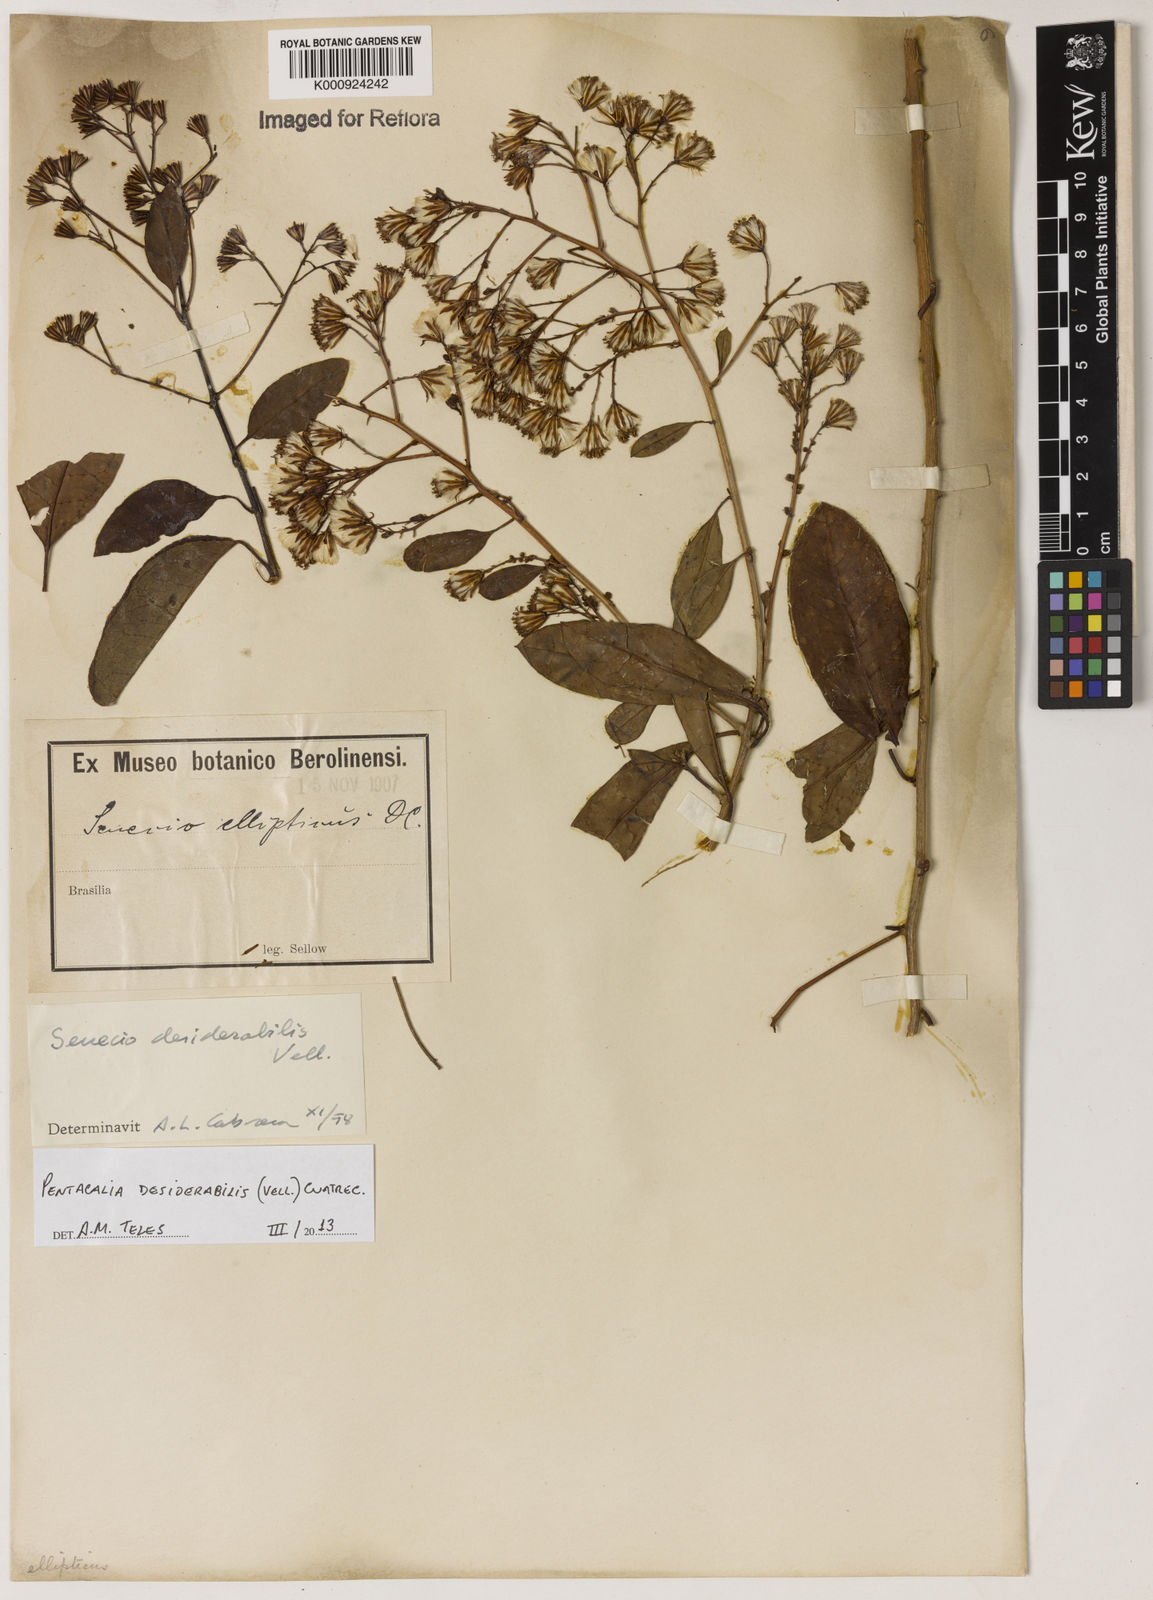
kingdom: Plantae
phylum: Tracheophyta
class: Magnoliopsida
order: Asterales
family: Asteraceae
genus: Pentacalia
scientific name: Pentacalia desiderabilis
